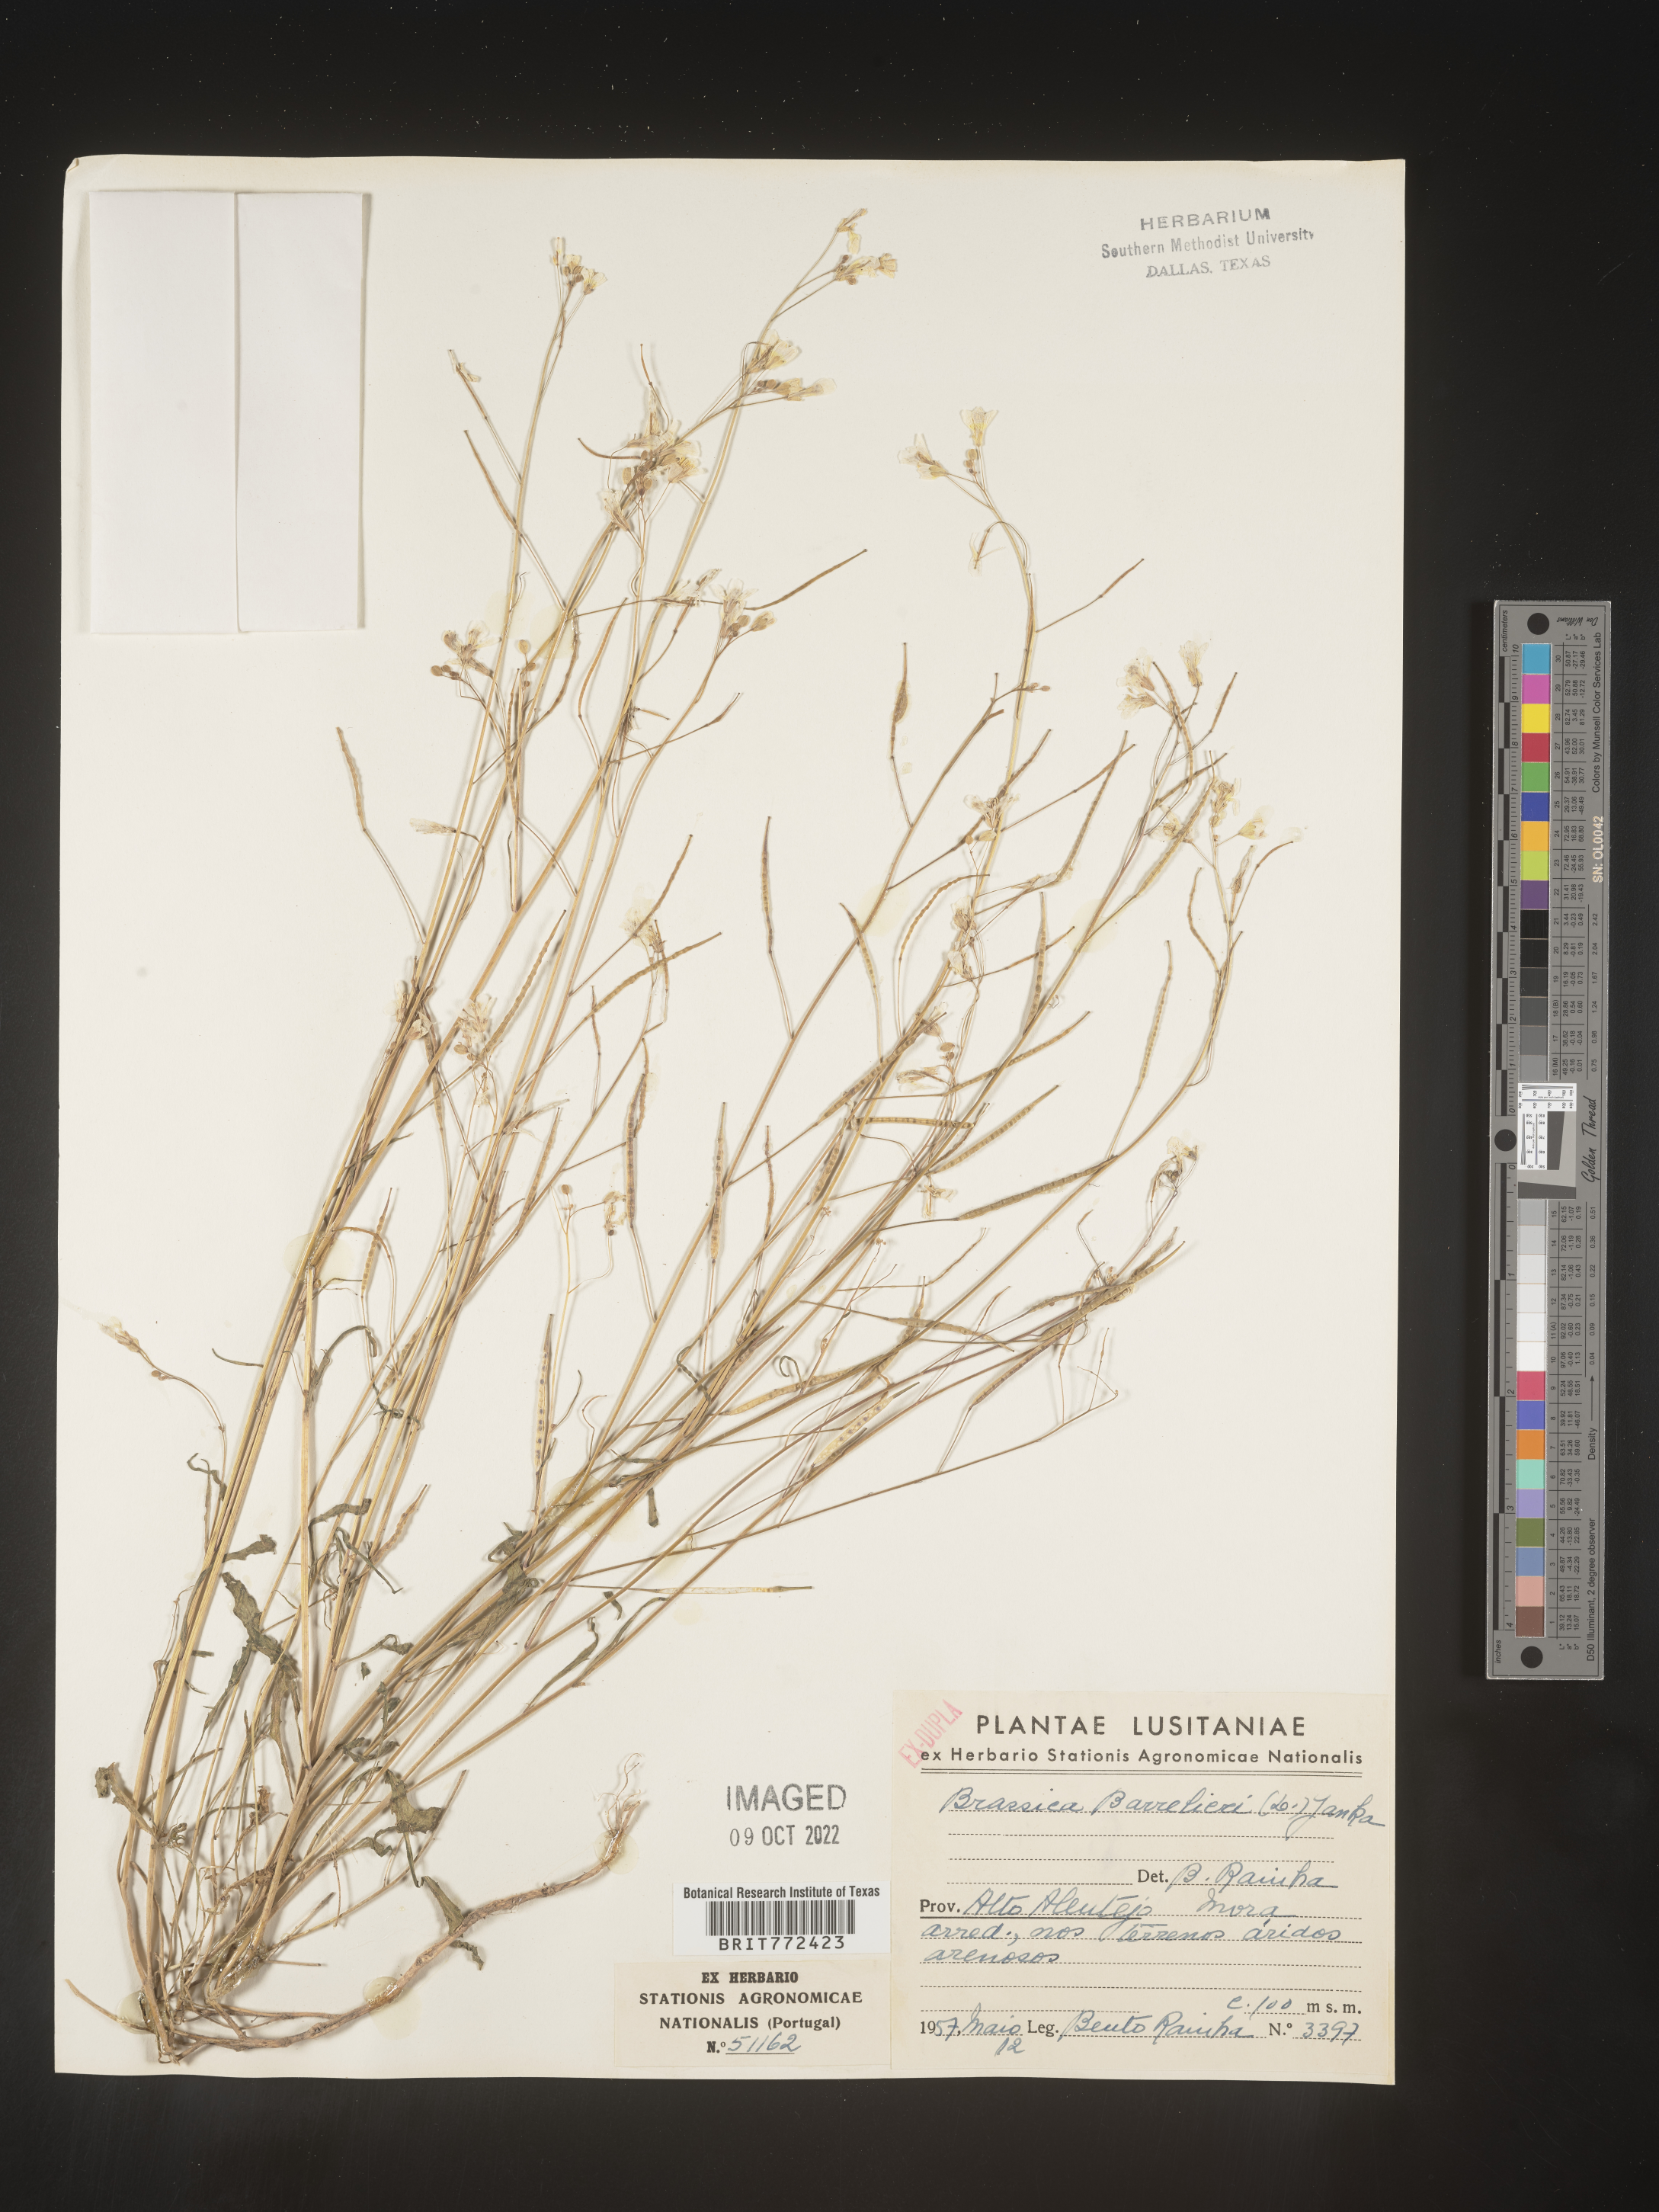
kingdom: Plantae
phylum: Tracheophyta
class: Magnoliopsida
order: Brassicales
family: Brassicaceae
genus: Brassica
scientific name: Brassica
